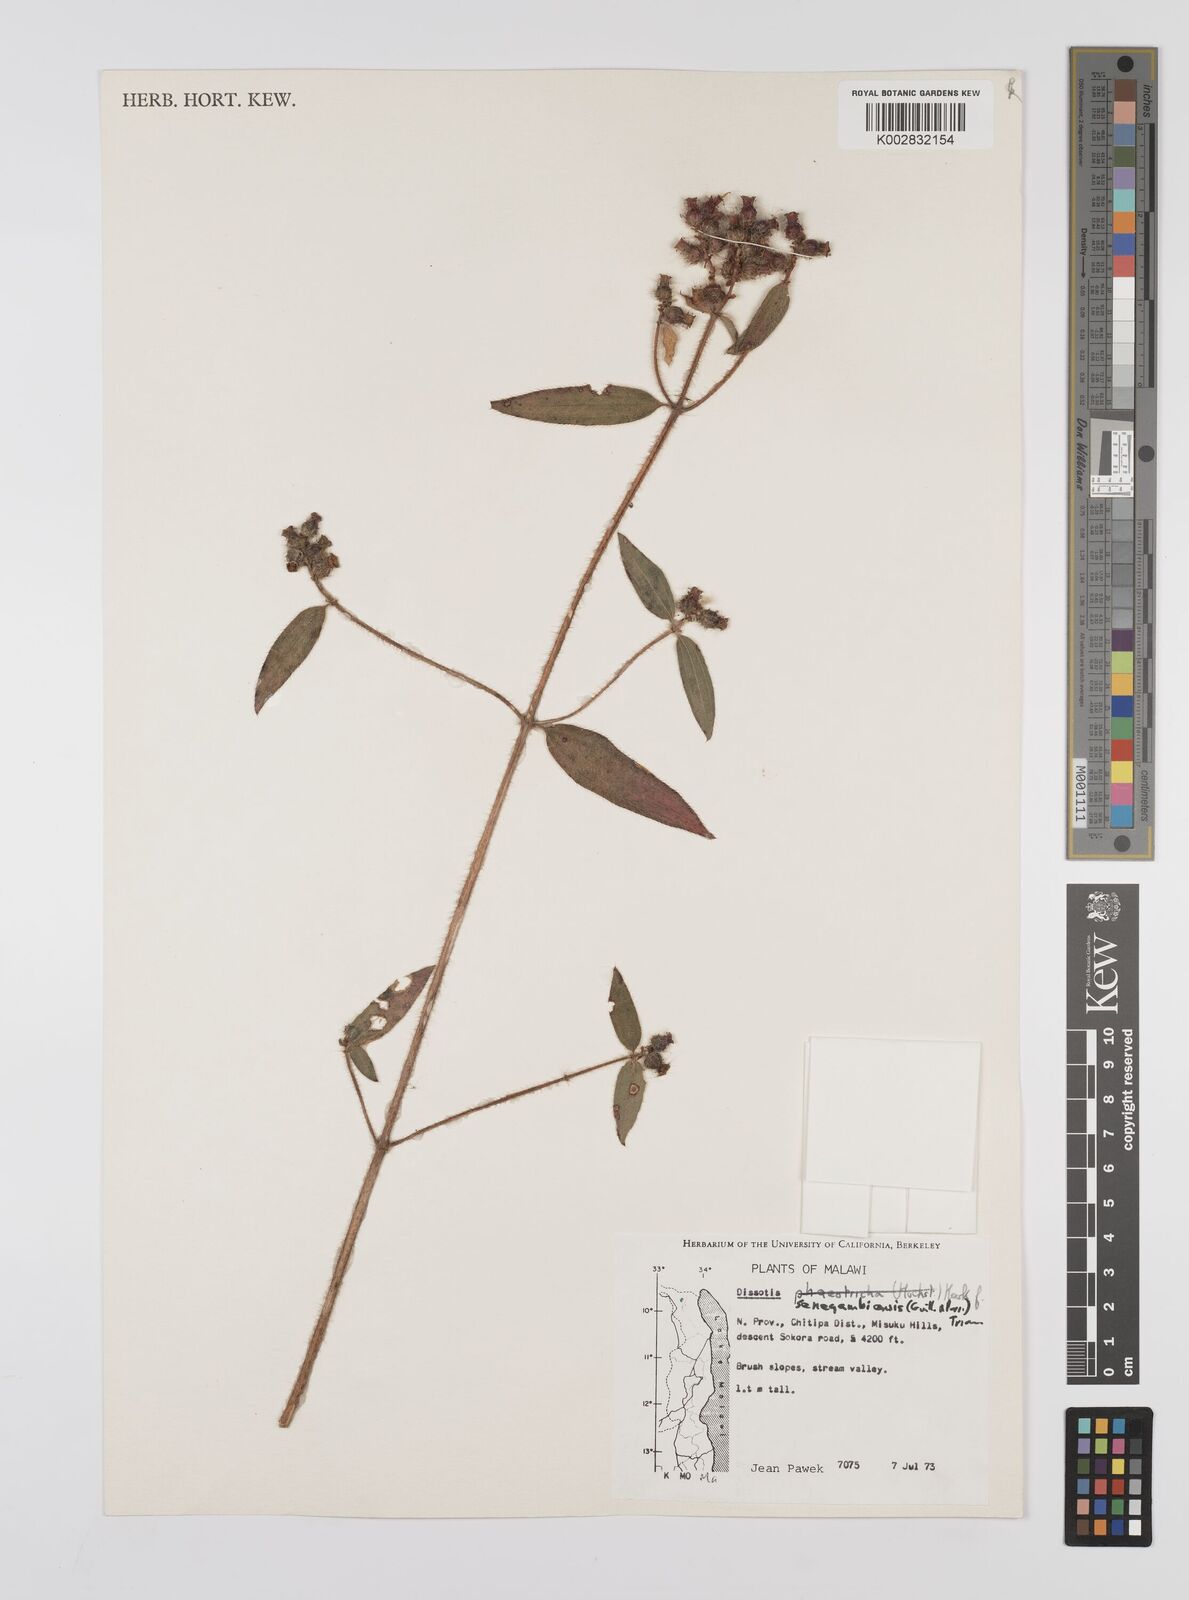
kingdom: Plantae
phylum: Tracheophyta
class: Magnoliopsida
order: Myrtales
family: Melastomataceae
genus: Nerophila
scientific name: Nerophila senegambiensis
